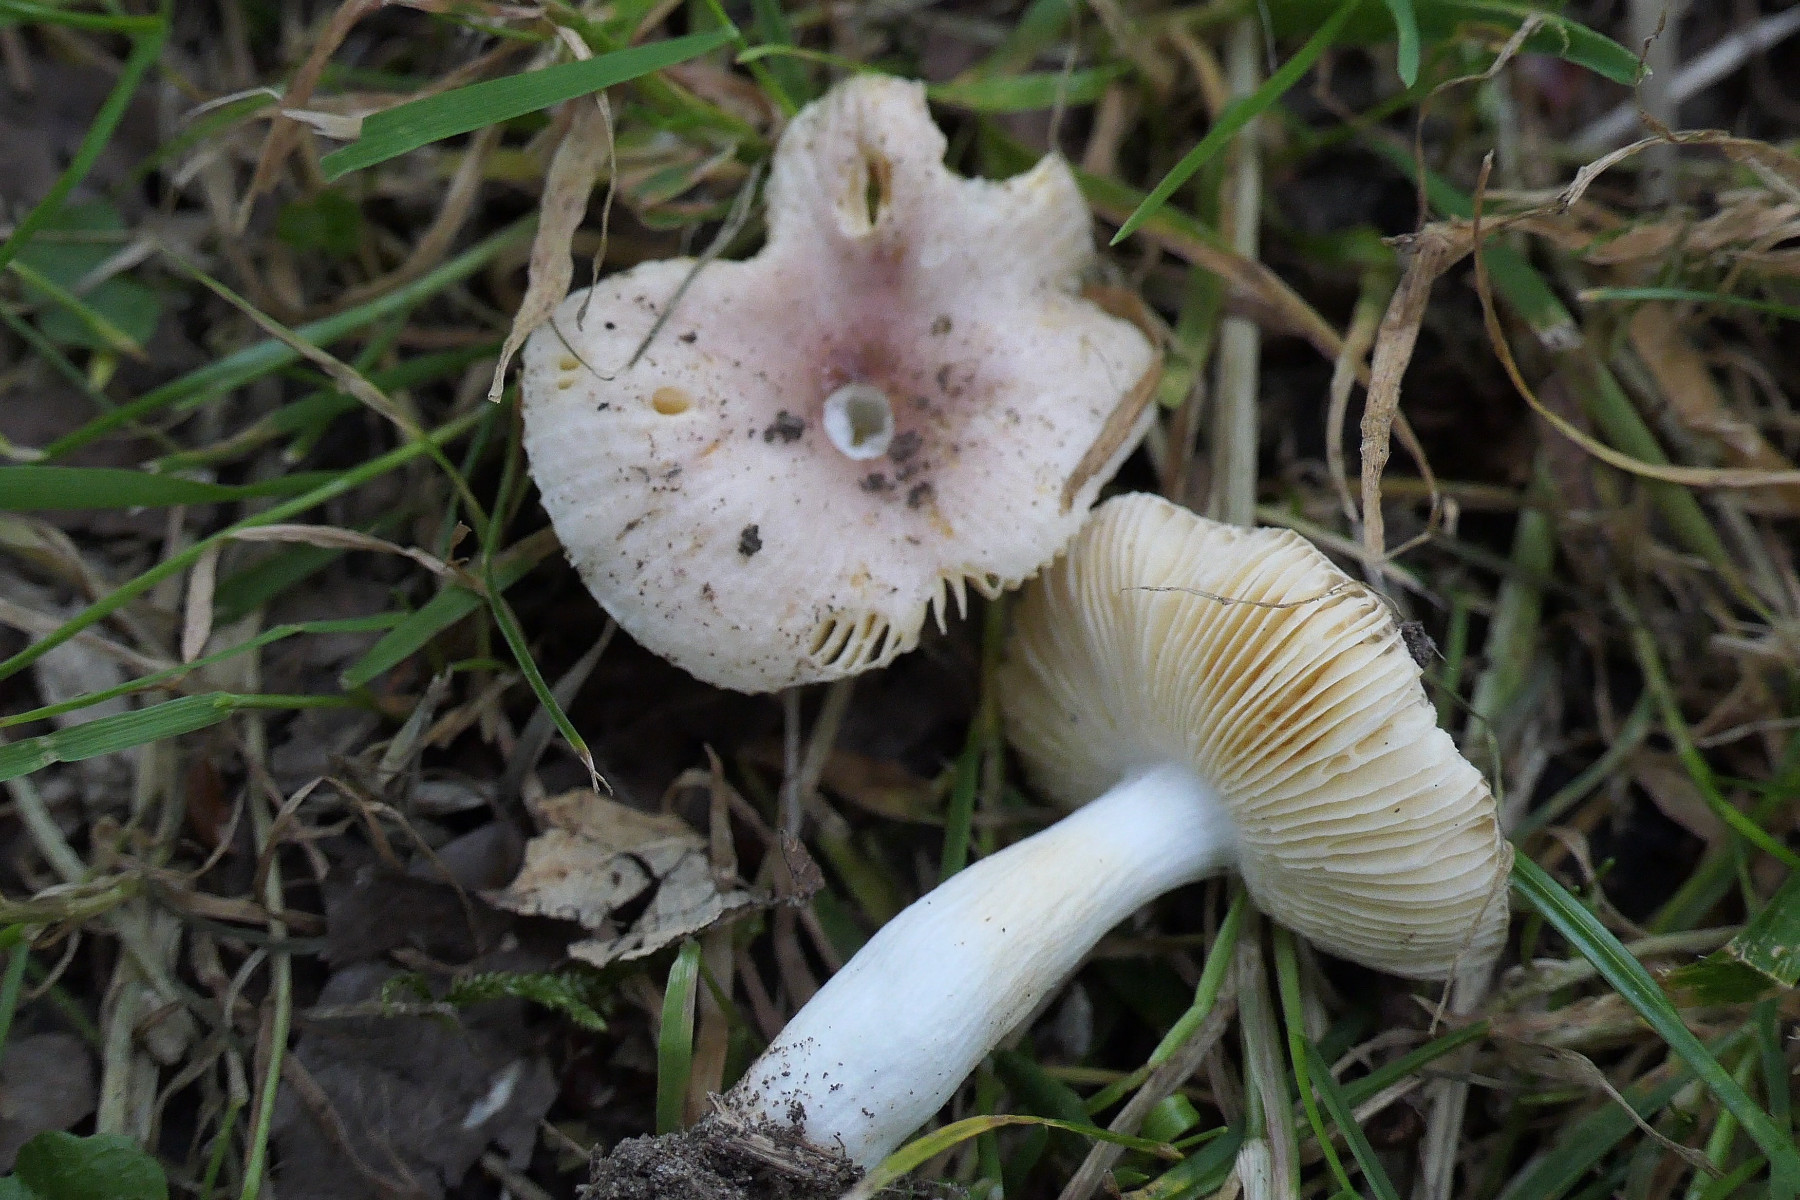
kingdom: Fungi
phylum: Basidiomycota
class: Agaricomycetes
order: Russulales
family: Russulaceae
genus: Russula
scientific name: Russula odorata
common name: duft-skørhat
